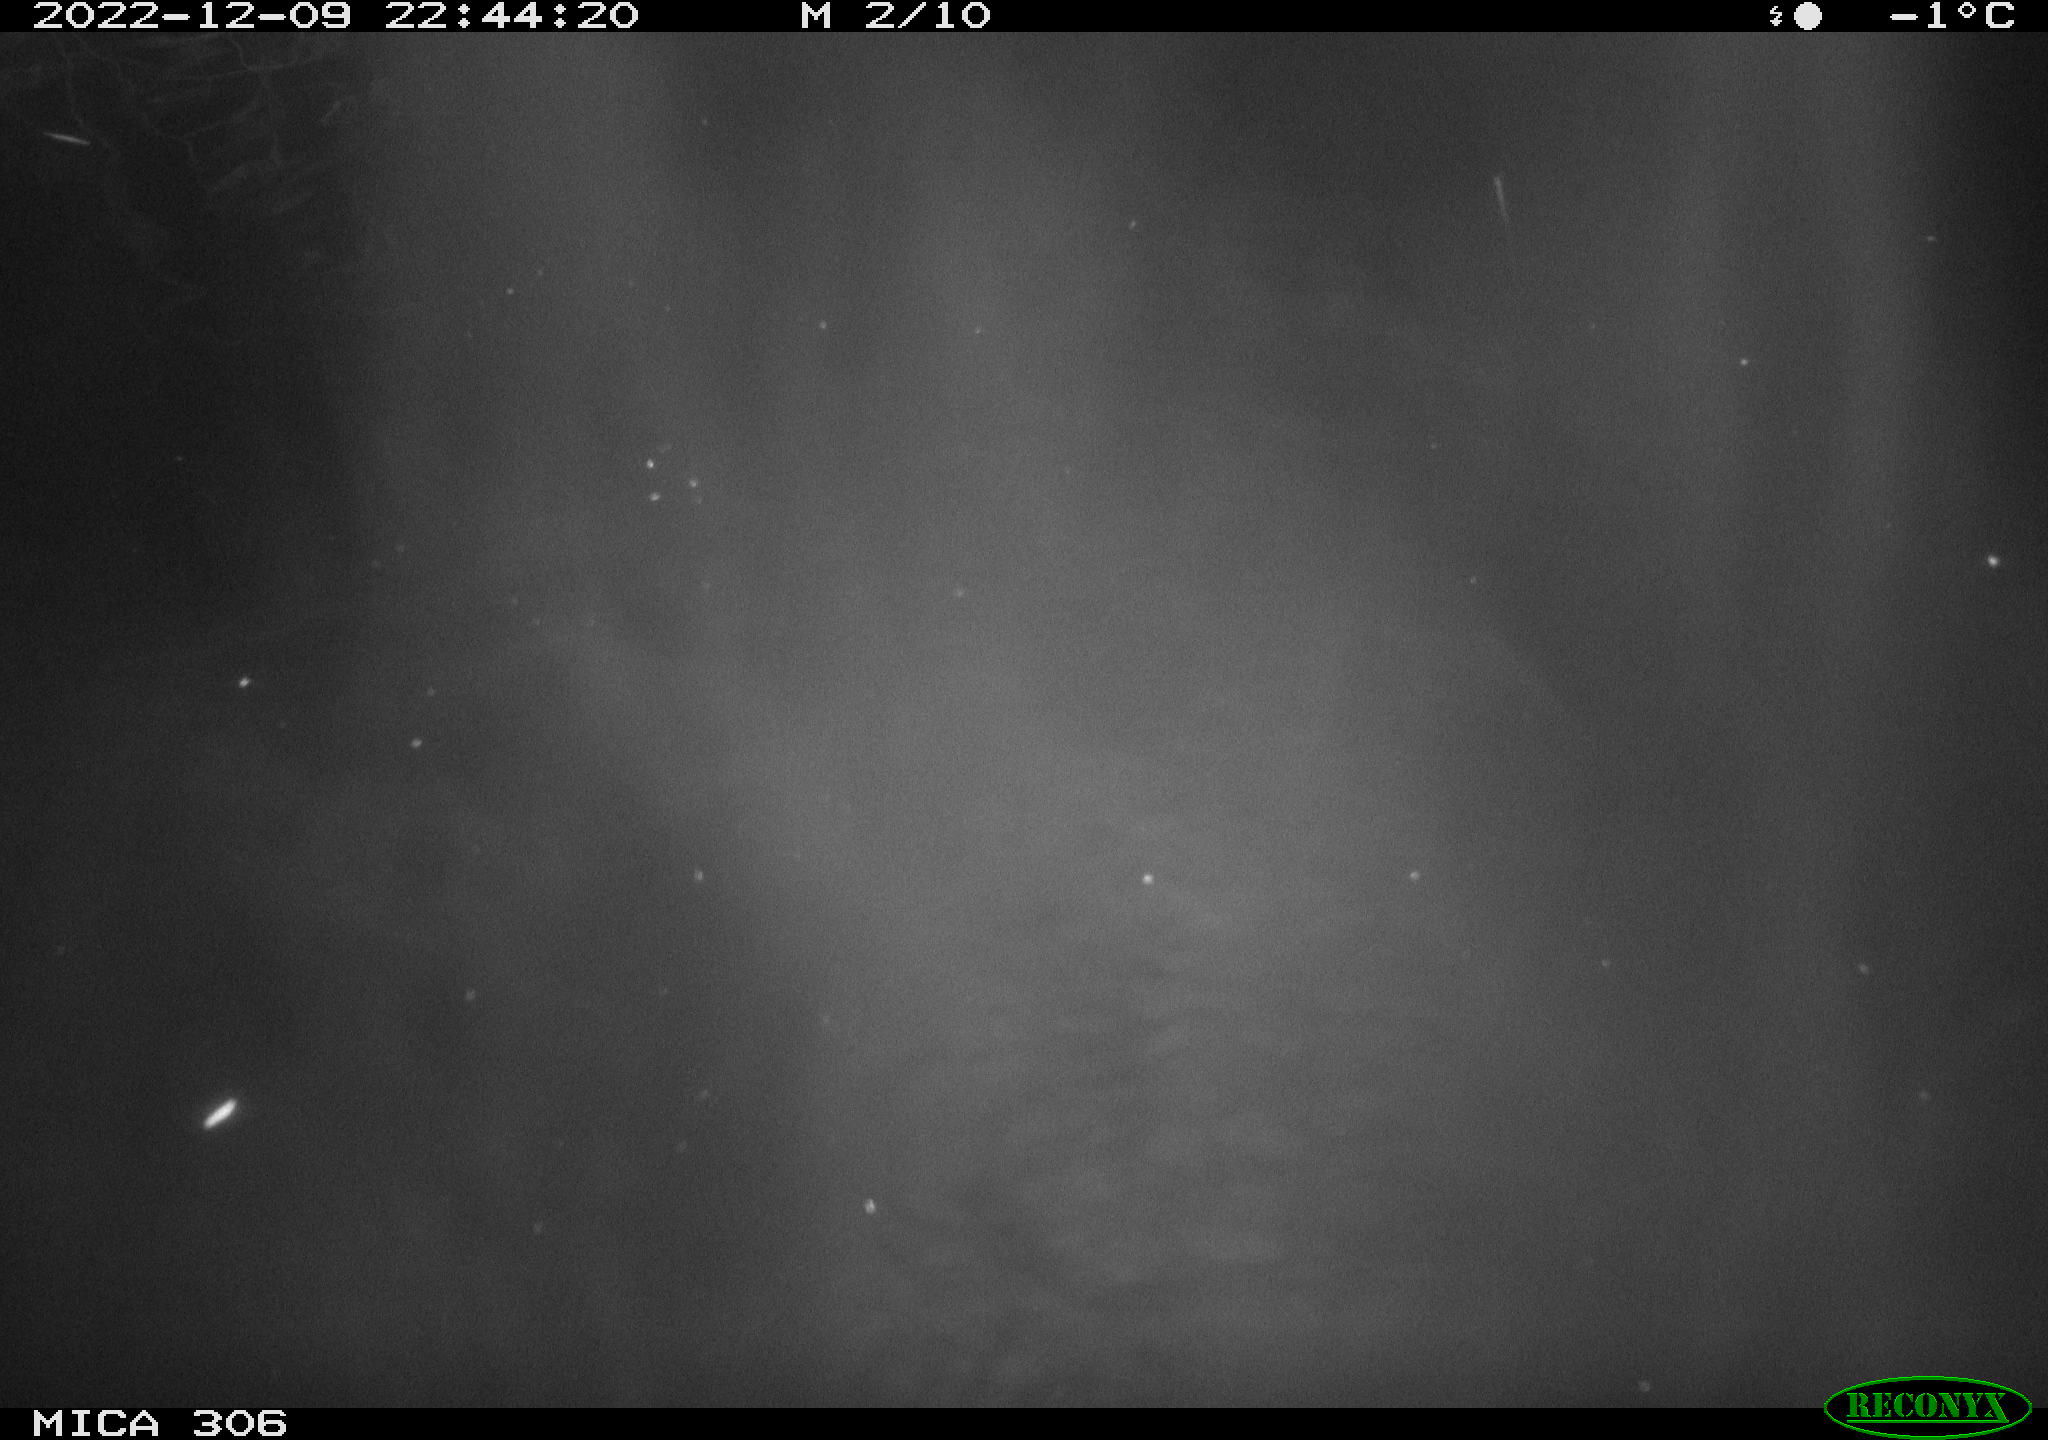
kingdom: Animalia
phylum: Chordata
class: Mammalia
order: Rodentia
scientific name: Rodentia
